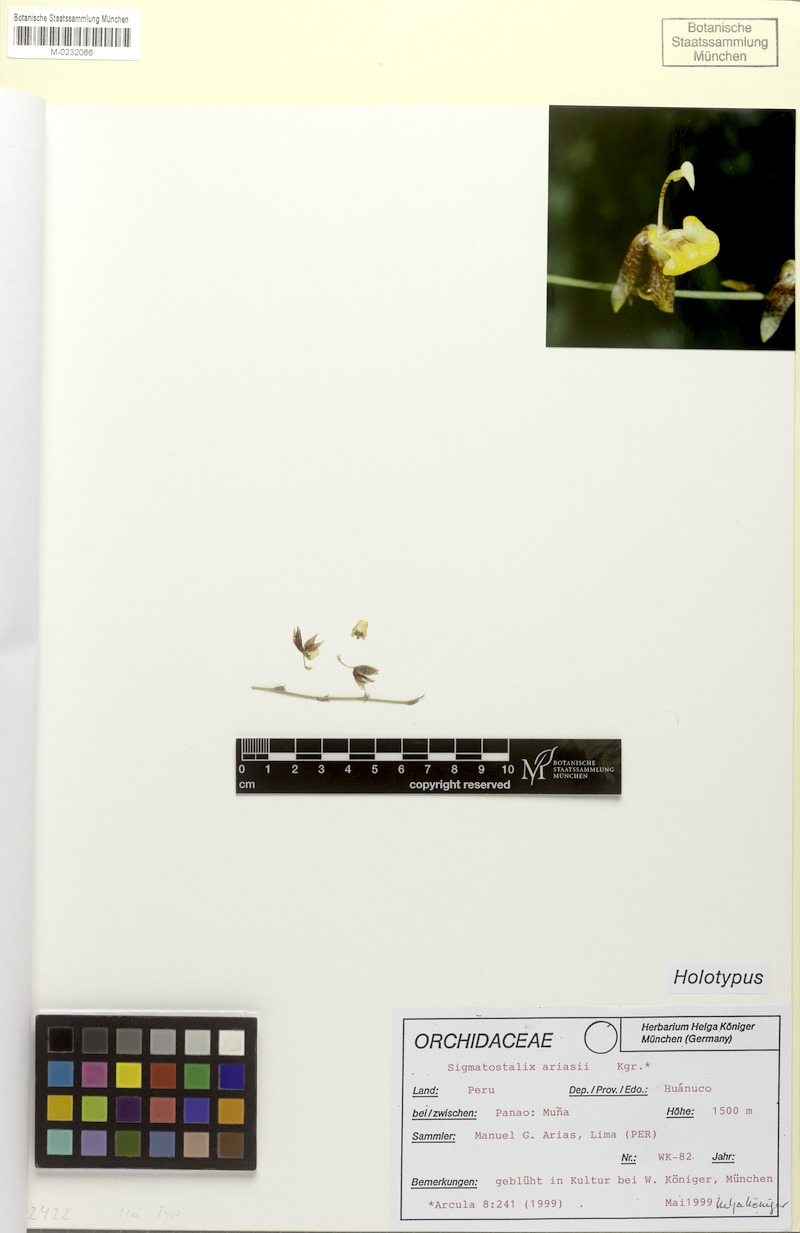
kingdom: Plantae
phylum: Tracheophyta
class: Liliopsida
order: Asparagales
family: Orchidaceae
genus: Oncidium
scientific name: Oncidium koenigeri
